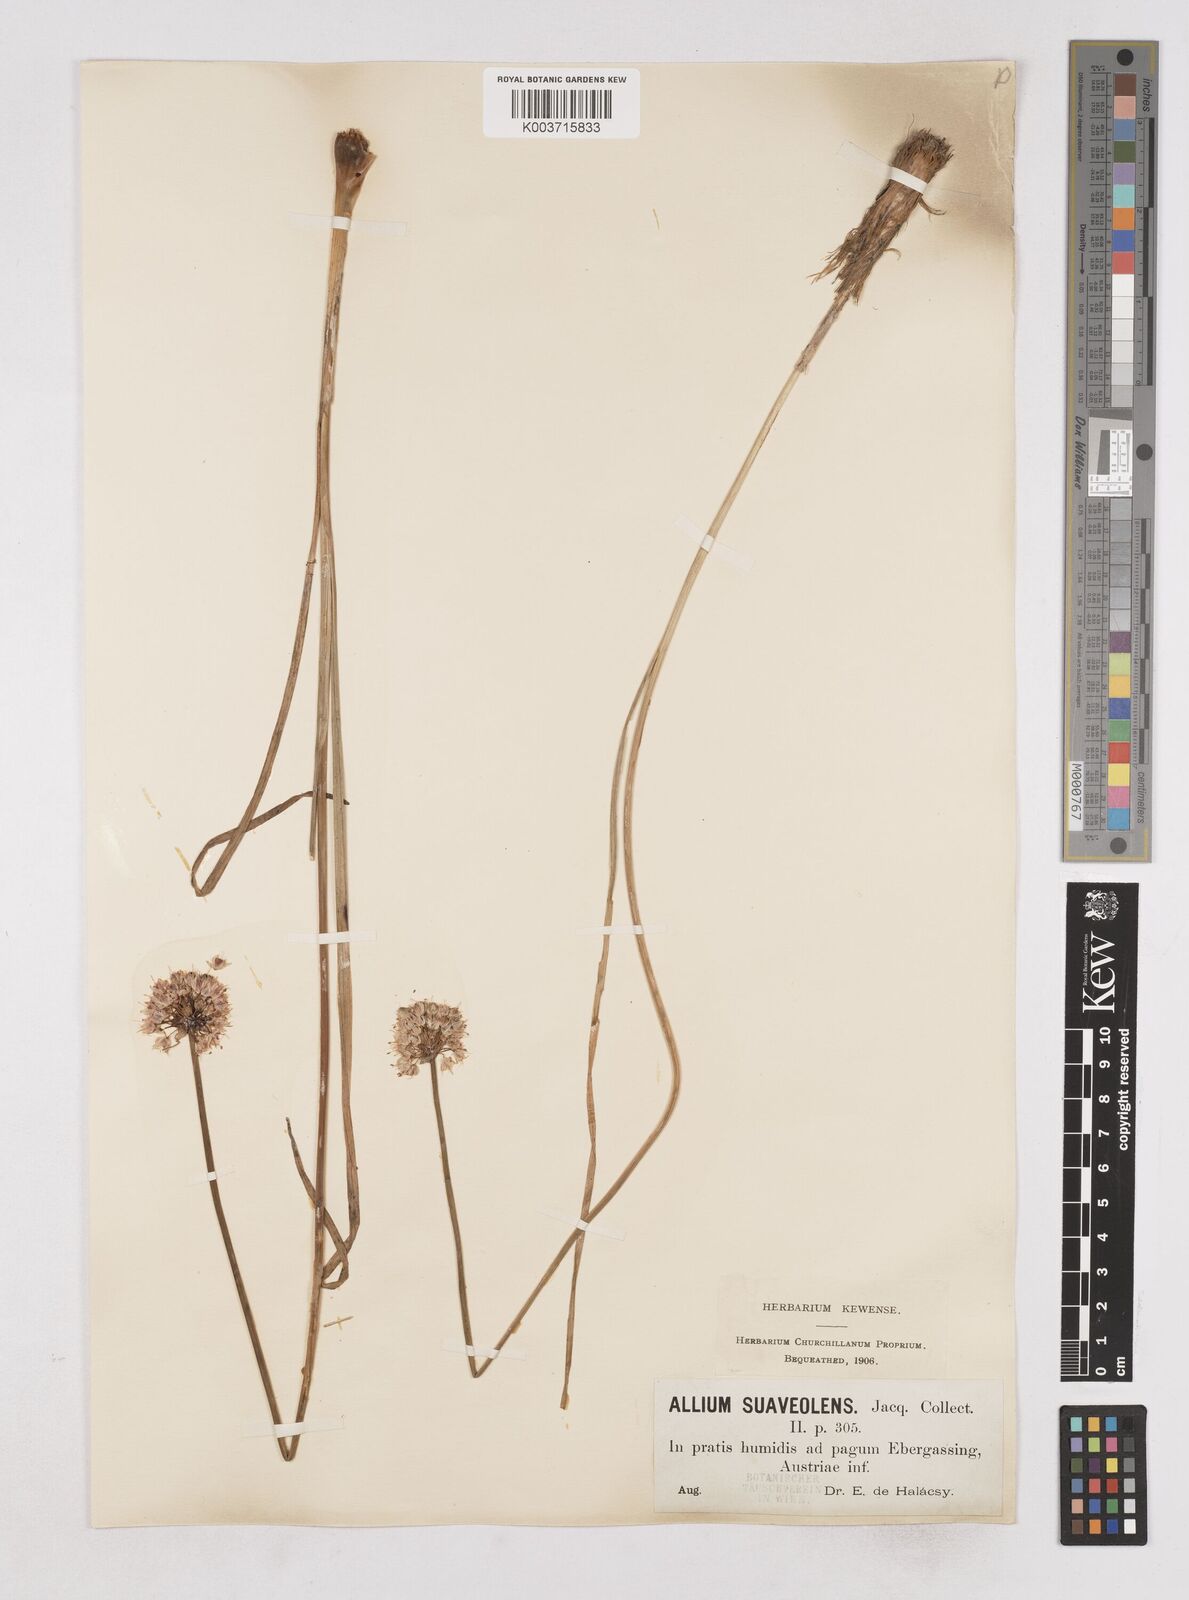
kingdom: Plantae
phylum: Tracheophyta
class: Liliopsida
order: Asparagales
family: Amaryllidaceae
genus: Allium
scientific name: Allium suaveolens
